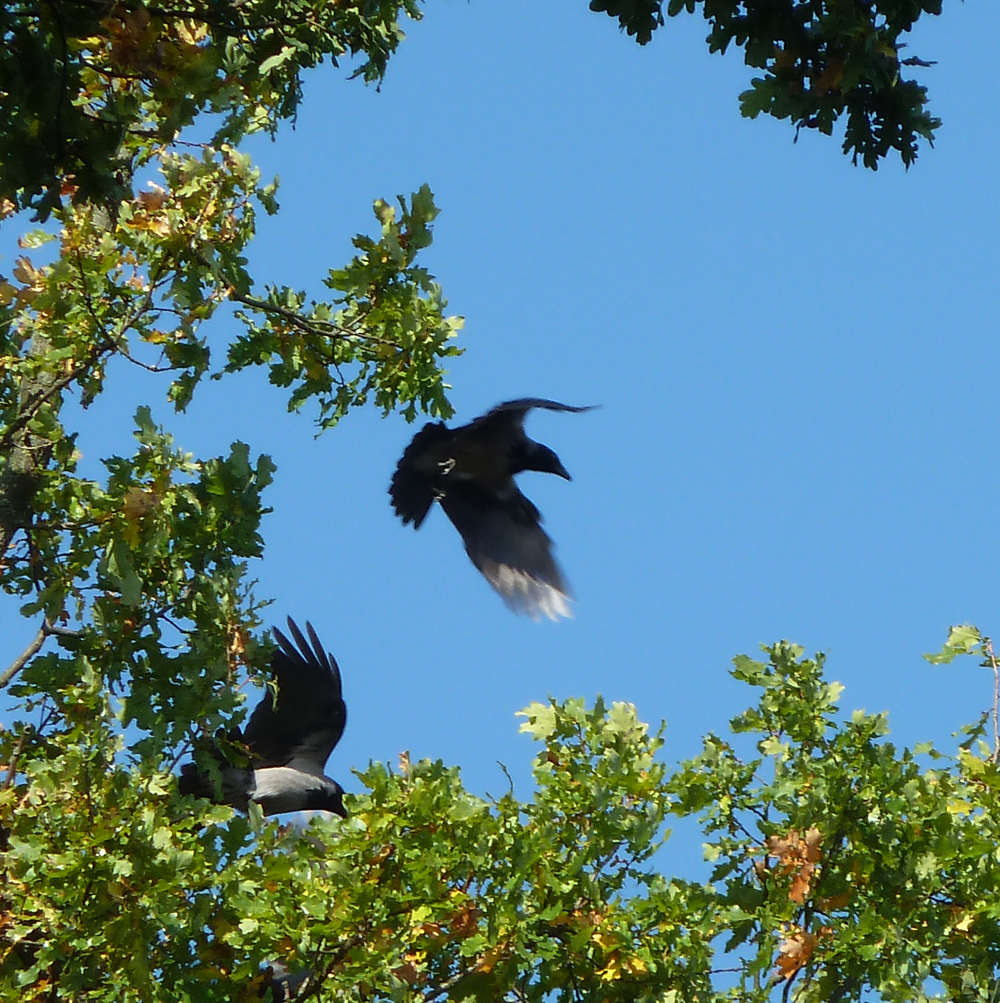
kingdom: Animalia
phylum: Chordata
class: Aves
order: Passeriformes
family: Corvidae
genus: Corvus
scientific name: Corvus cornix
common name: Hooded crow
